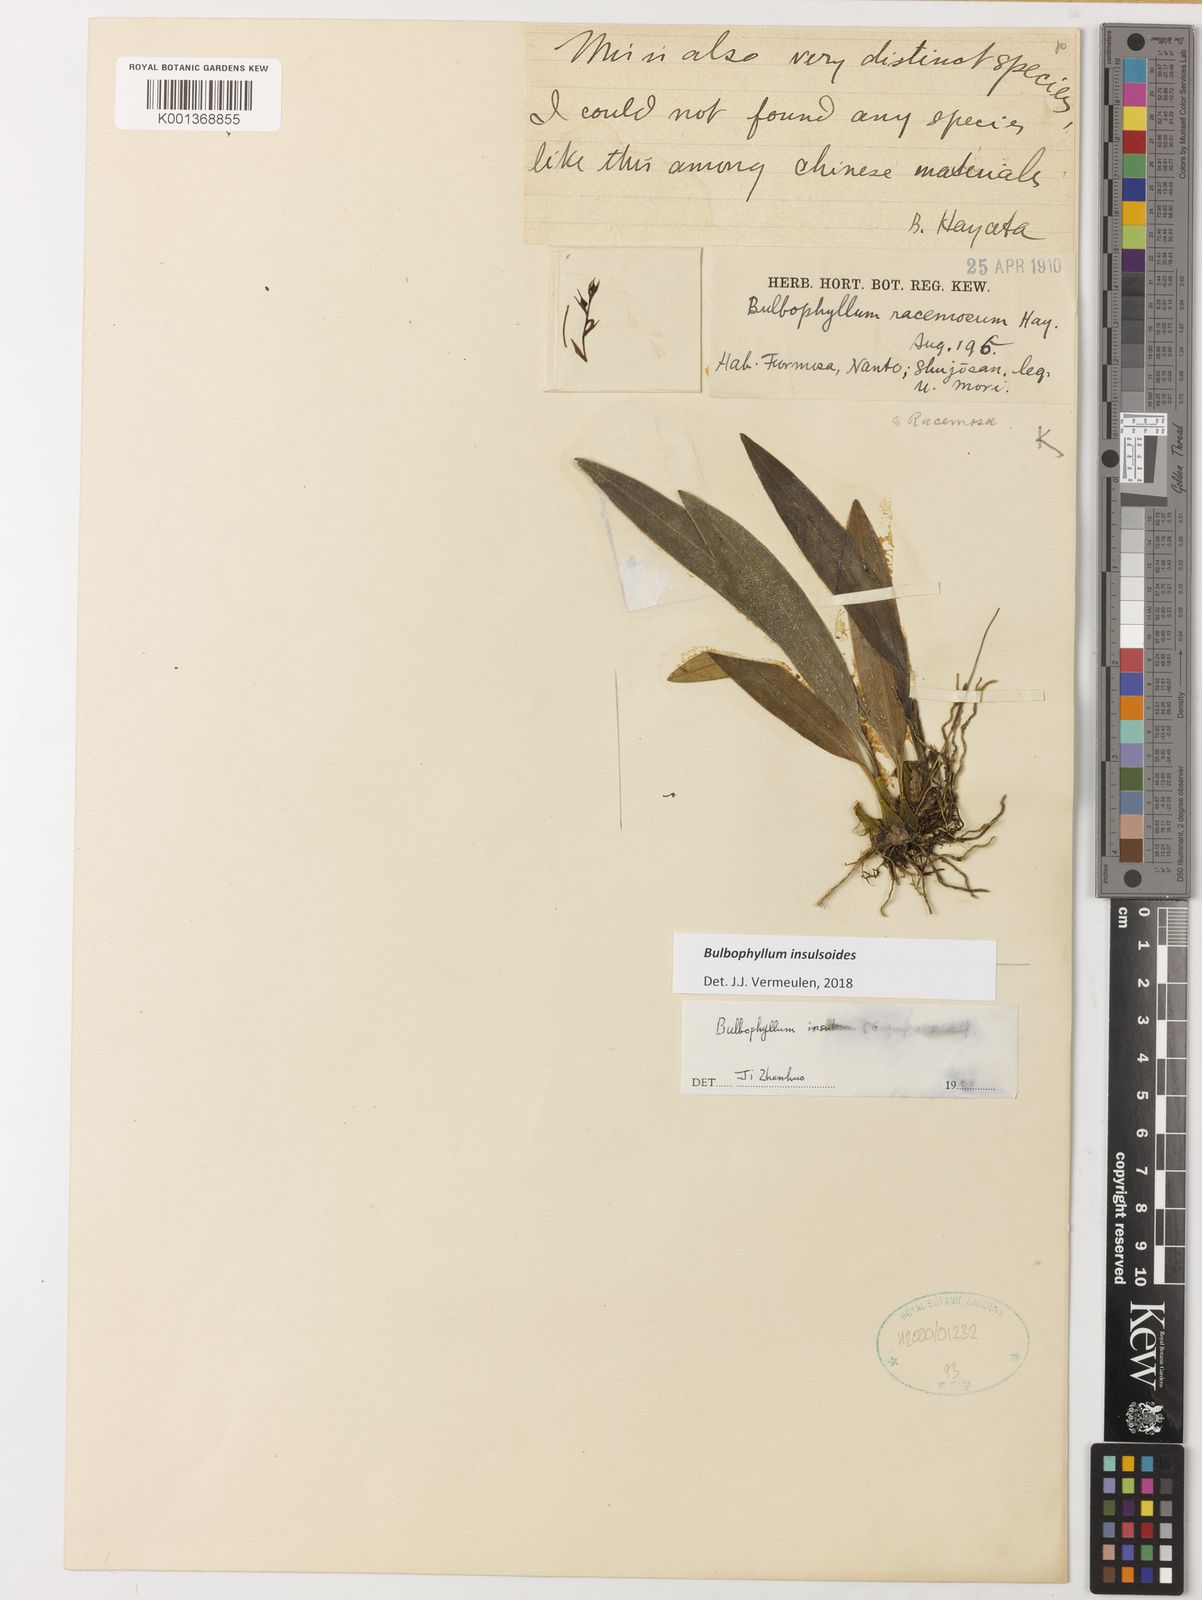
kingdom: Plantae
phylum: Tracheophyta
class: Liliopsida
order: Asparagales
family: Orchidaceae
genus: Bulbophyllum
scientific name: Bulbophyllum insulsoides
